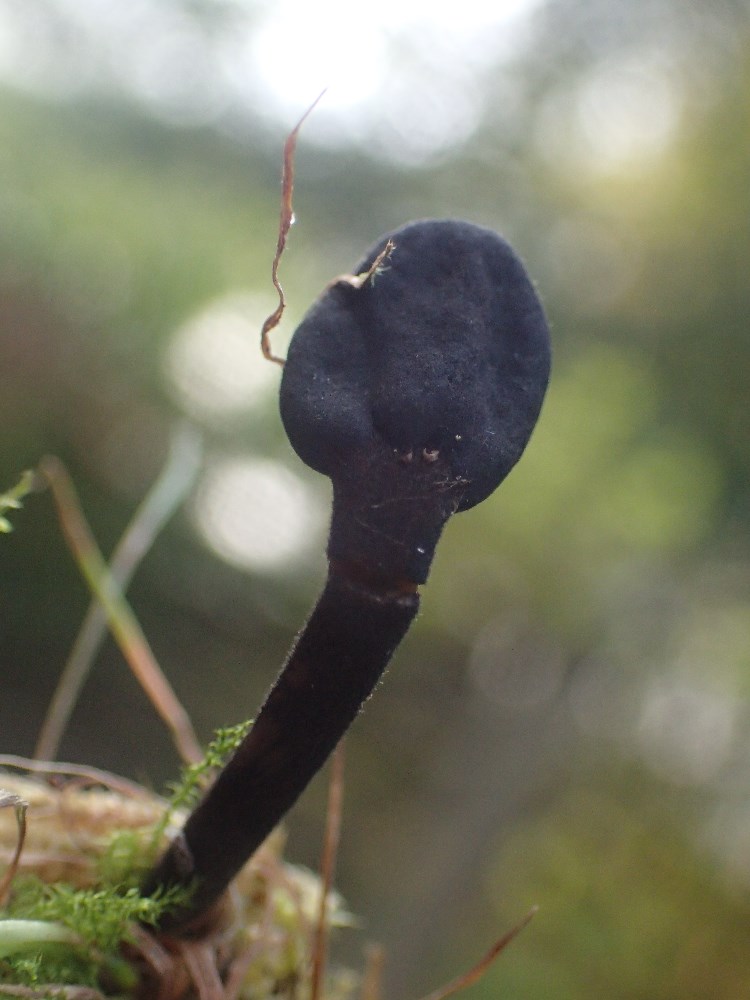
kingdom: Fungi
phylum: Ascomycota
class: Geoglossomycetes
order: Geoglossales
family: Geoglossaceae
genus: Trichoglossum
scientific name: Trichoglossum
